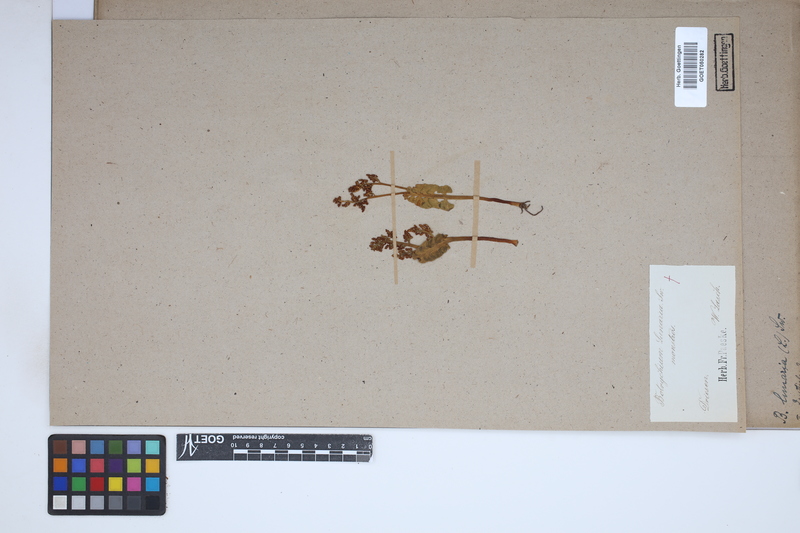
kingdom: Plantae
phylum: Tracheophyta
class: Polypodiopsida
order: Ophioglossales
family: Ophioglossaceae
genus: Botrychium
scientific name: Botrychium lunaria
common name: Moonwort
